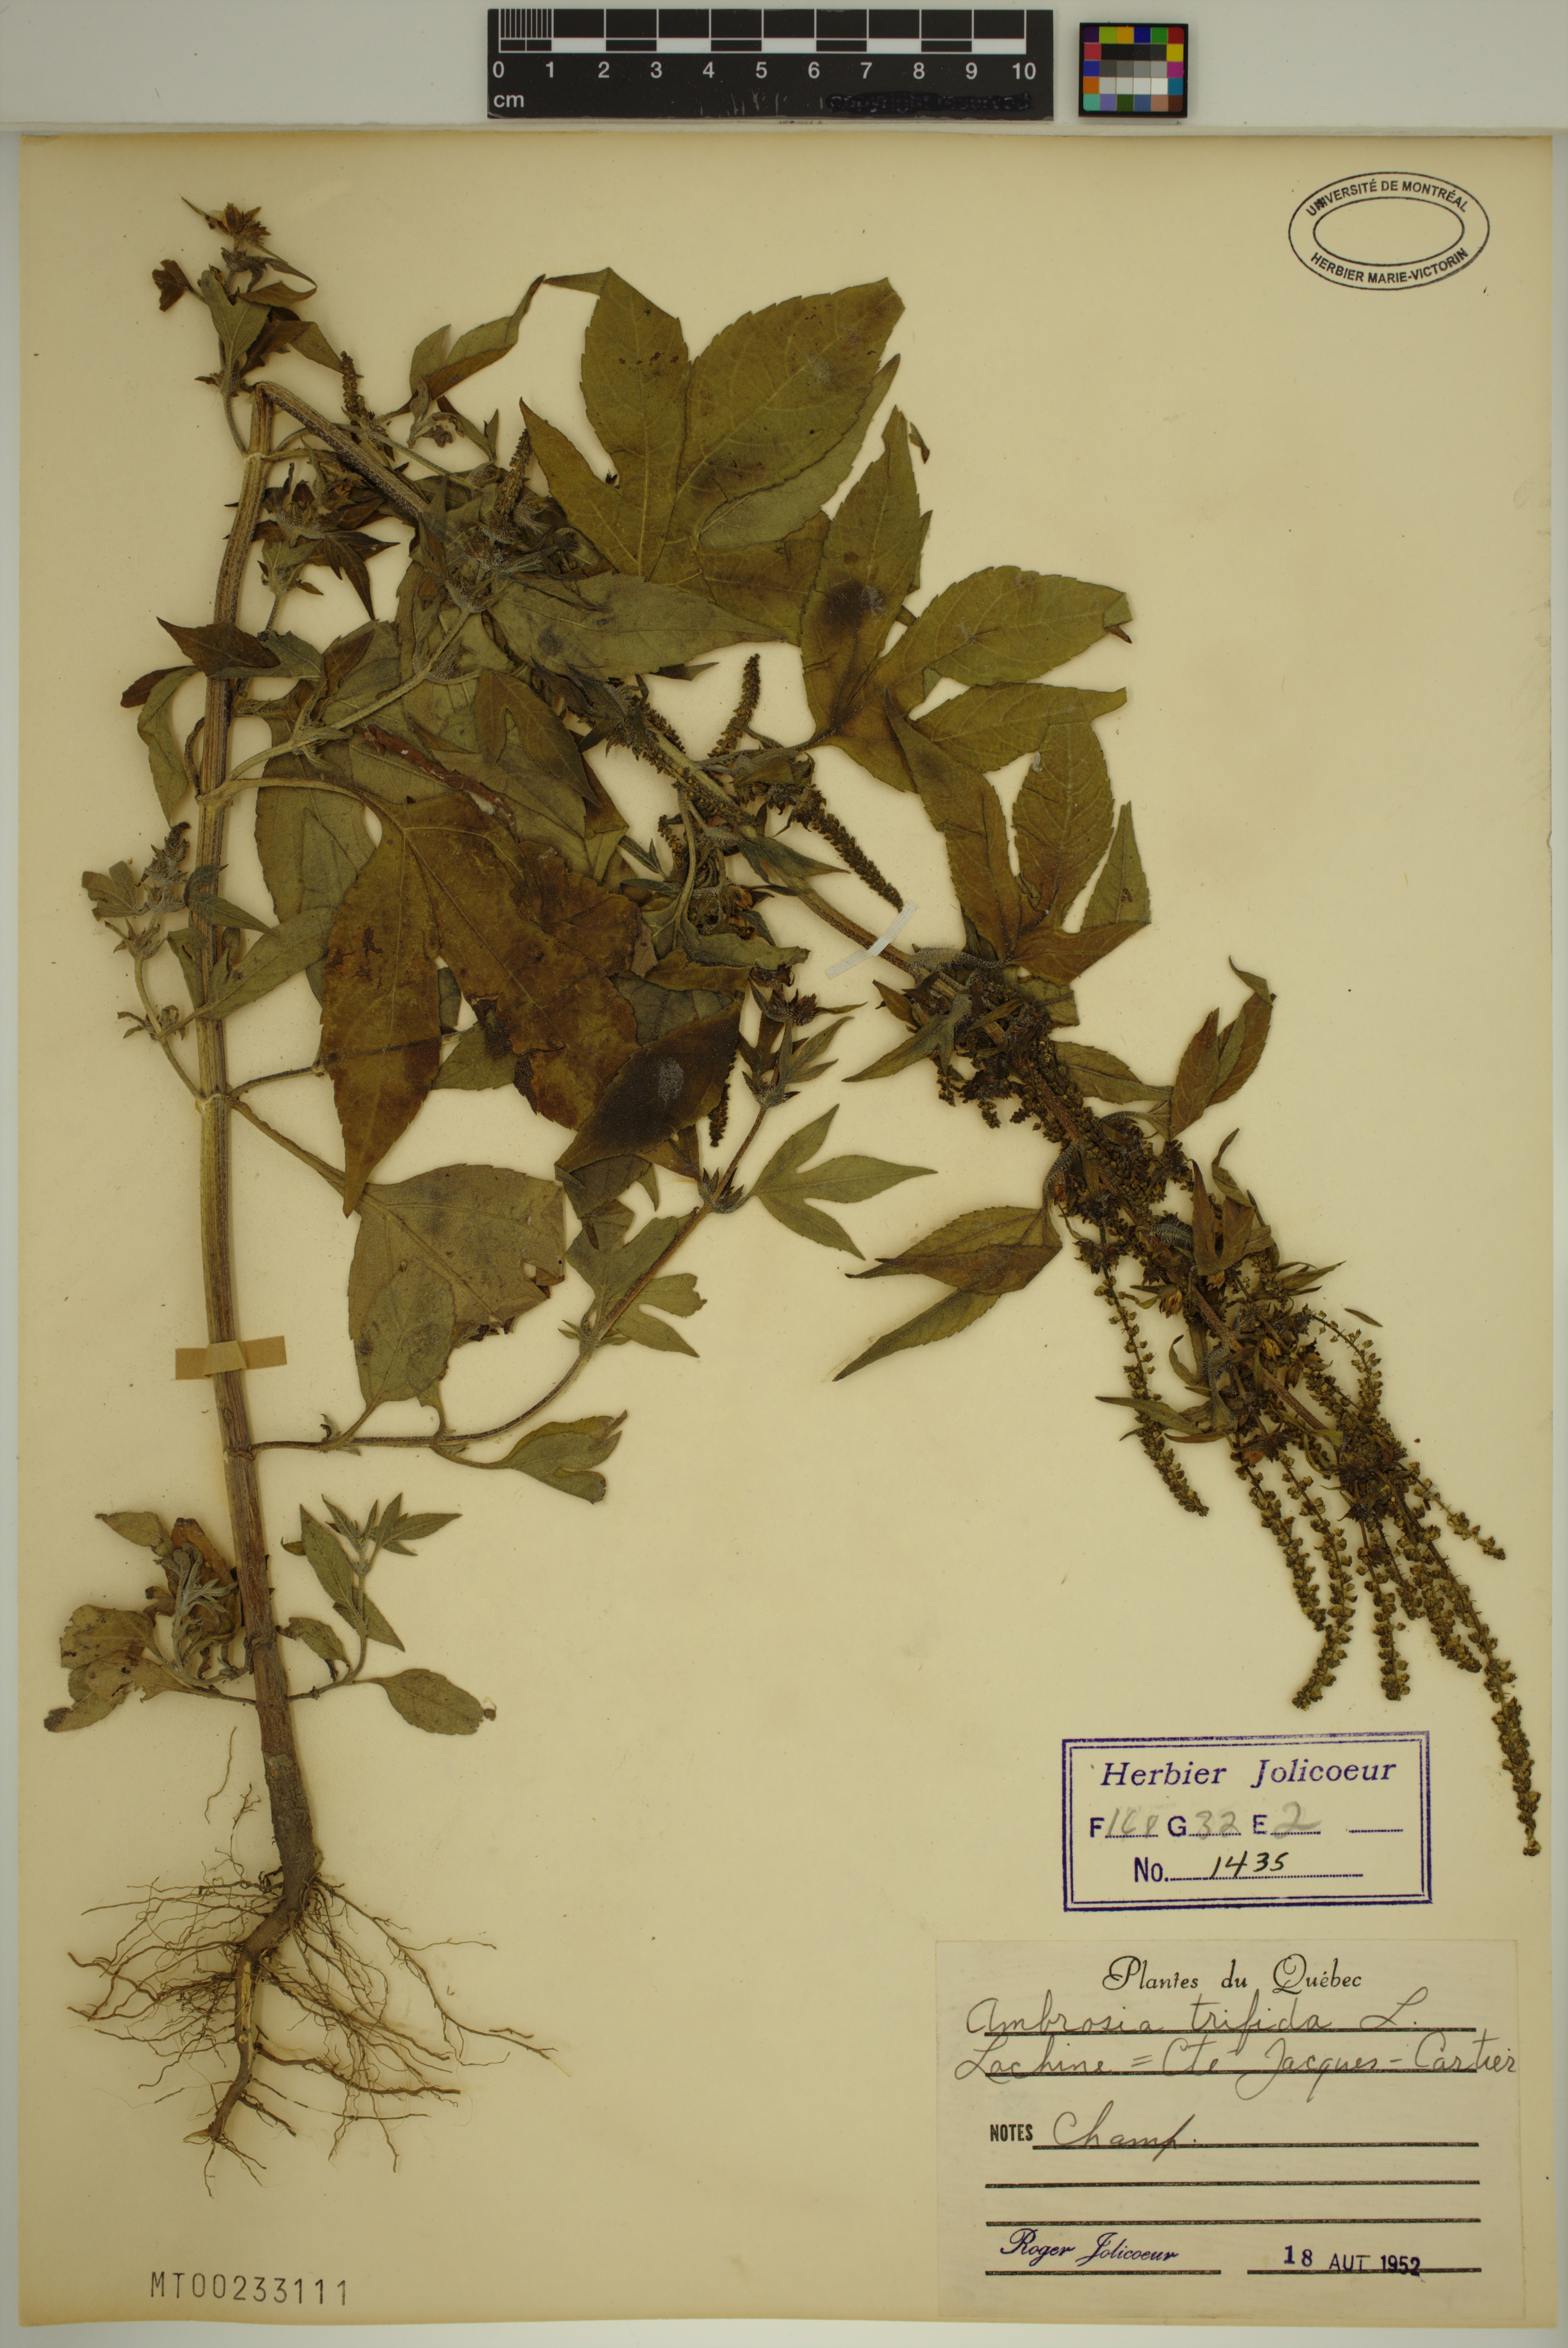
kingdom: Plantae
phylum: Tracheophyta
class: Magnoliopsida
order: Asterales
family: Asteraceae
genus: Ambrosia
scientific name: Ambrosia trifida
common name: Giant ragweed
